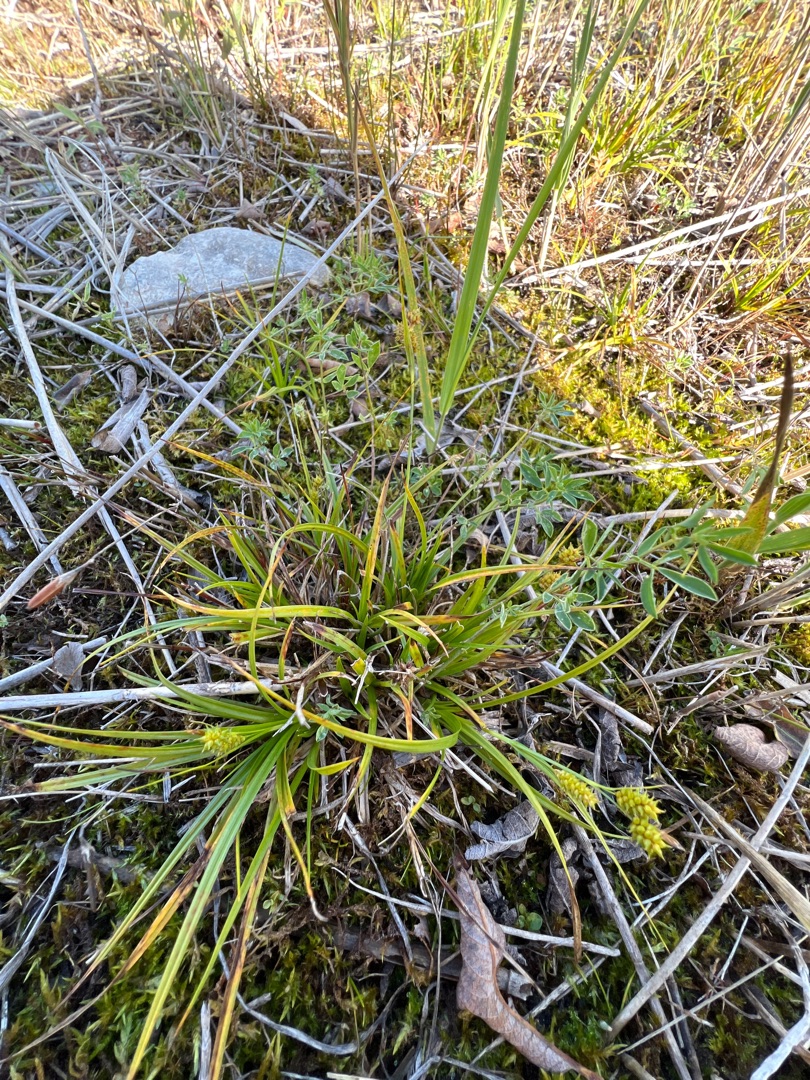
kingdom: Plantae
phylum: Tracheophyta
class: Liliopsida
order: Poales
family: Cyperaceae
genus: Carex
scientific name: Carex demissa
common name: Grøn star
